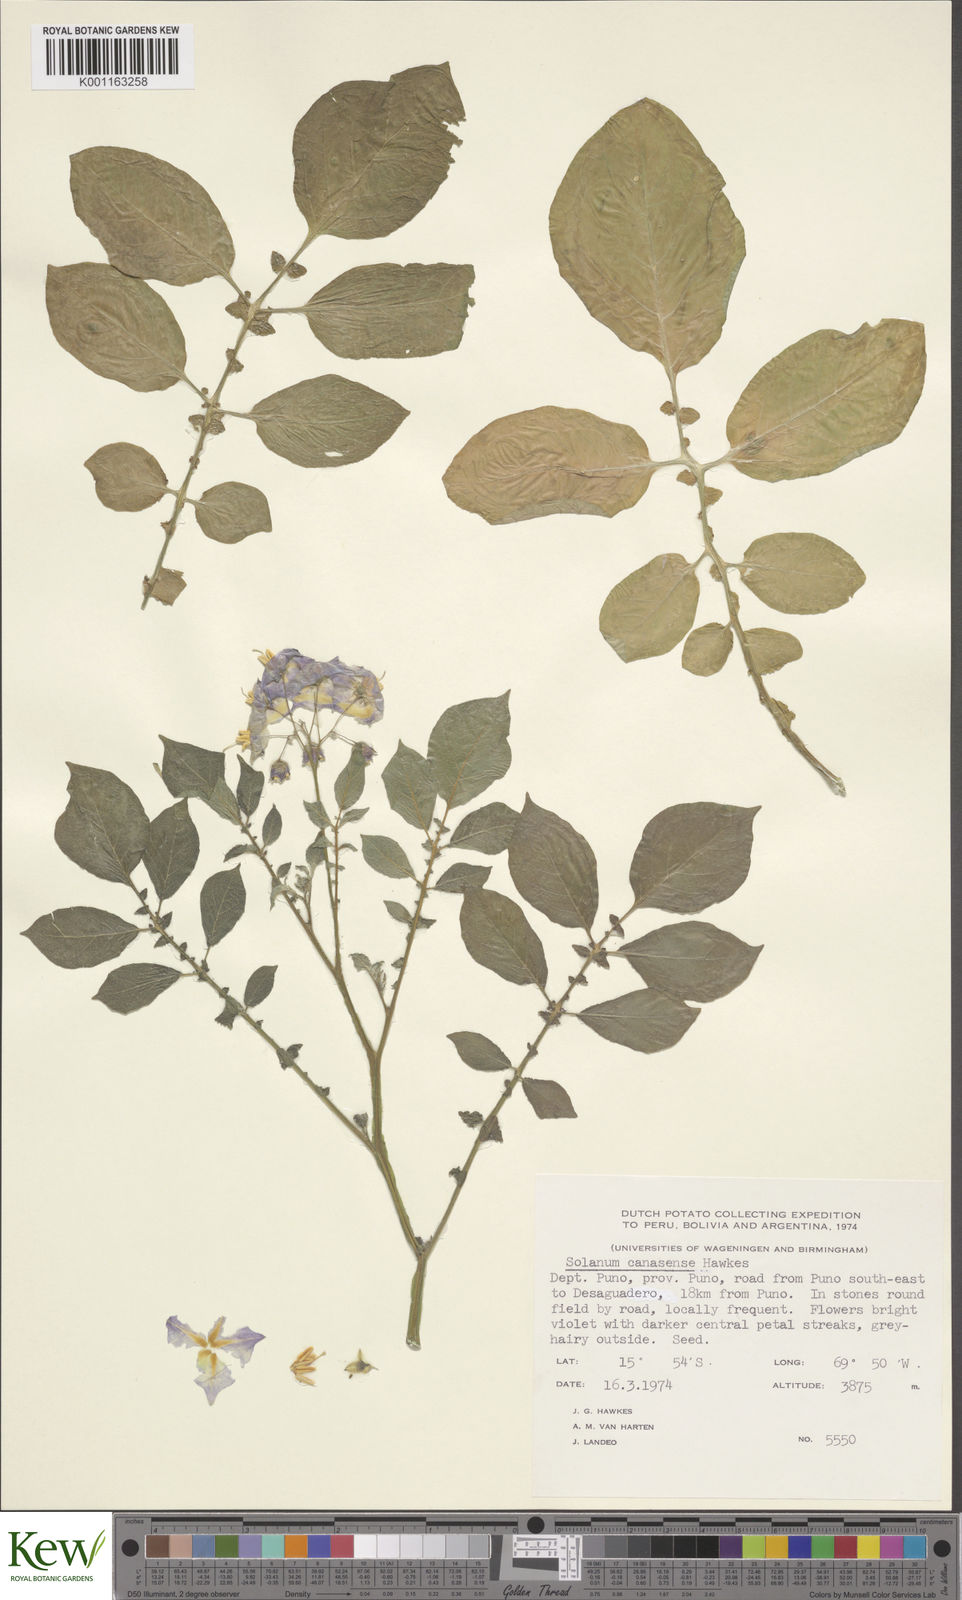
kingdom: Plantae
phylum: Tracheophyta
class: Magnoliopsida
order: Solanales
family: Solanaceae
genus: Solanum
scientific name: Solanum candolleanum
